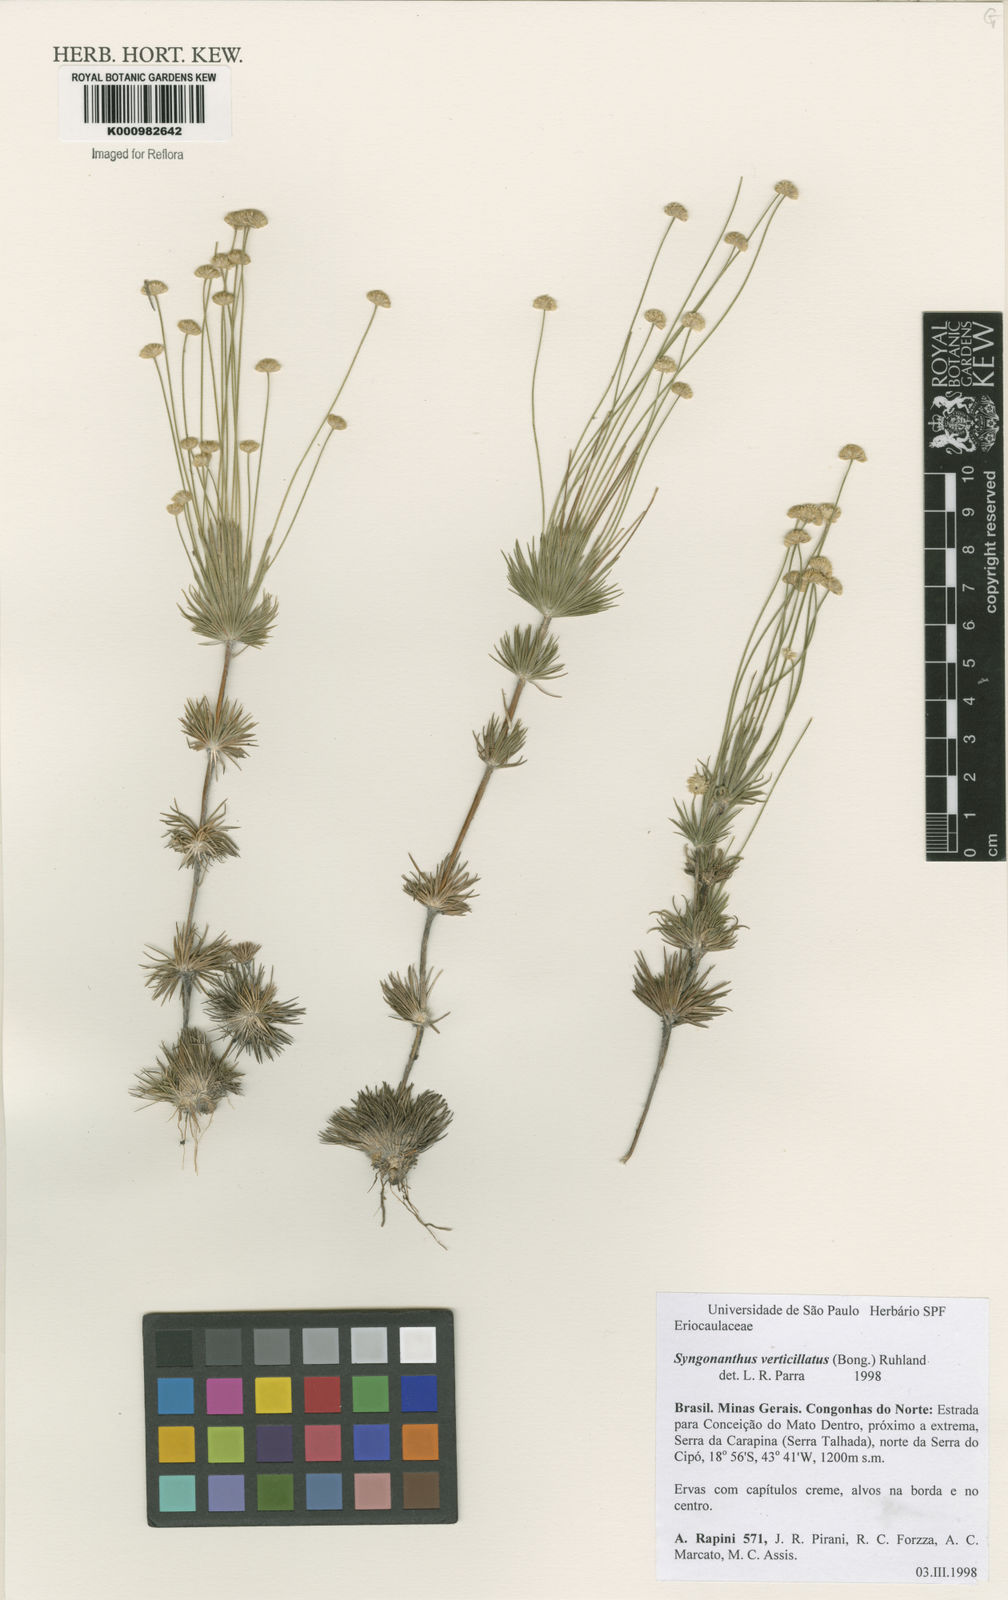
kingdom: Plantae
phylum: Tracheophyta
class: Liliopsida
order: Poales
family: Eriocaulaceae
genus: Syngonanthus
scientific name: Syngonanthus verticillatus
